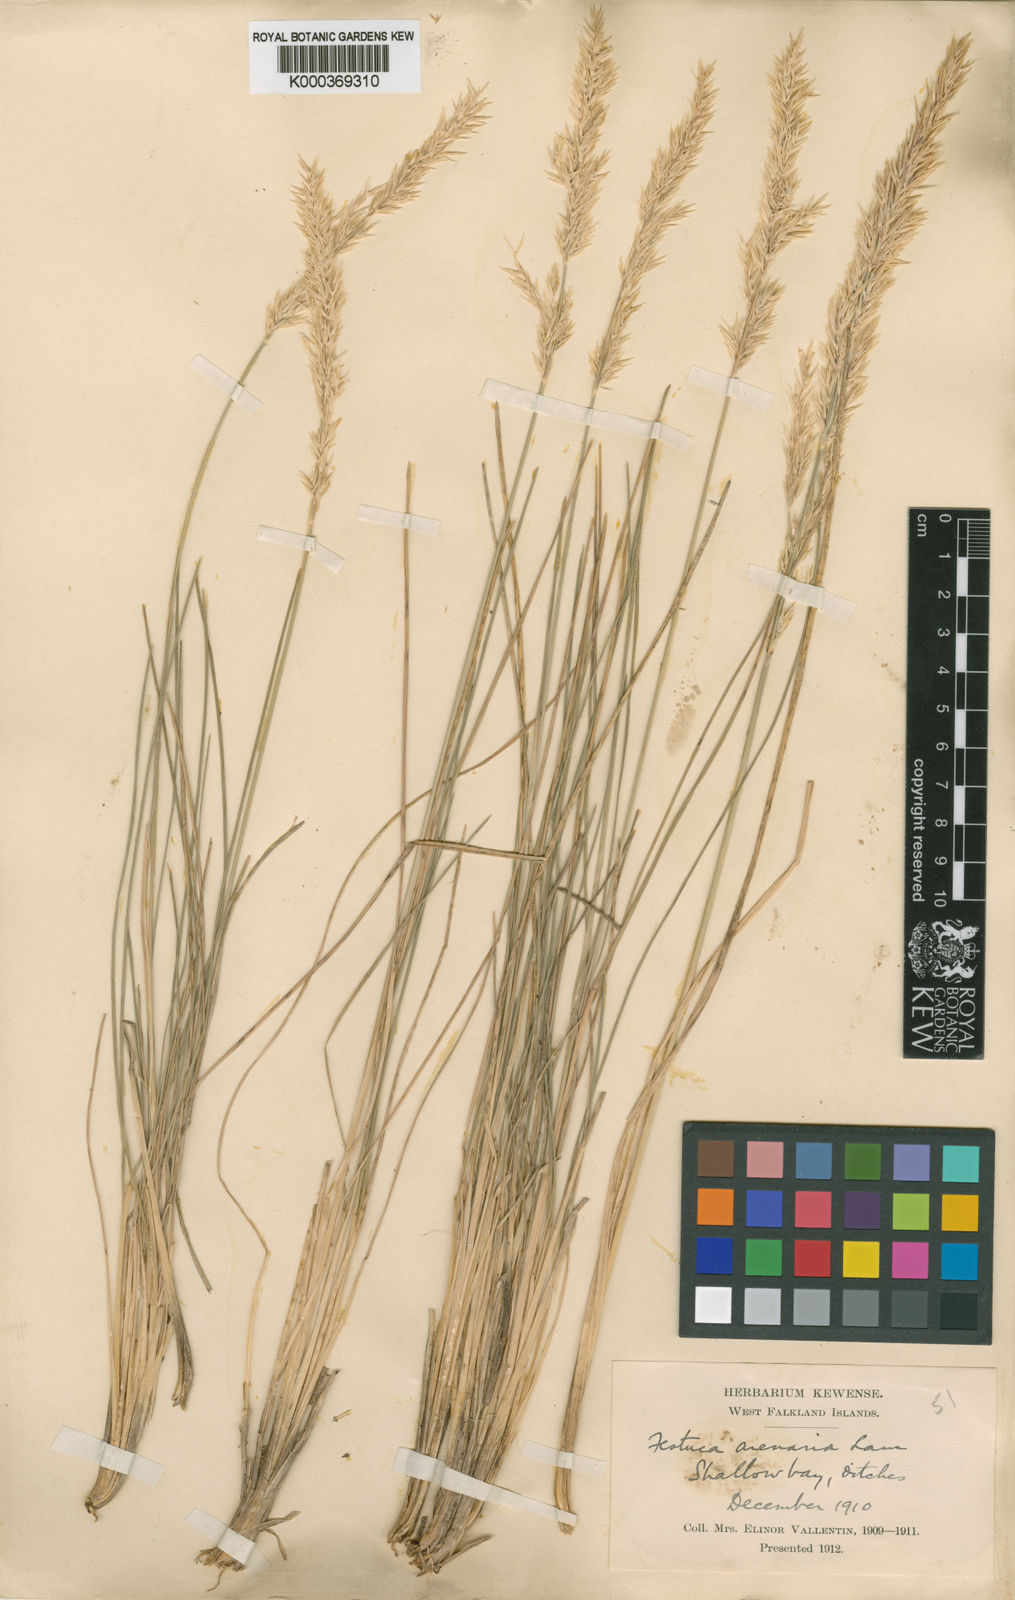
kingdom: Plantae
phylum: Tracheophyta
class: Liliopsida
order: Poales
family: Poaceae
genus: Poa
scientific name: Poa alopecurus
